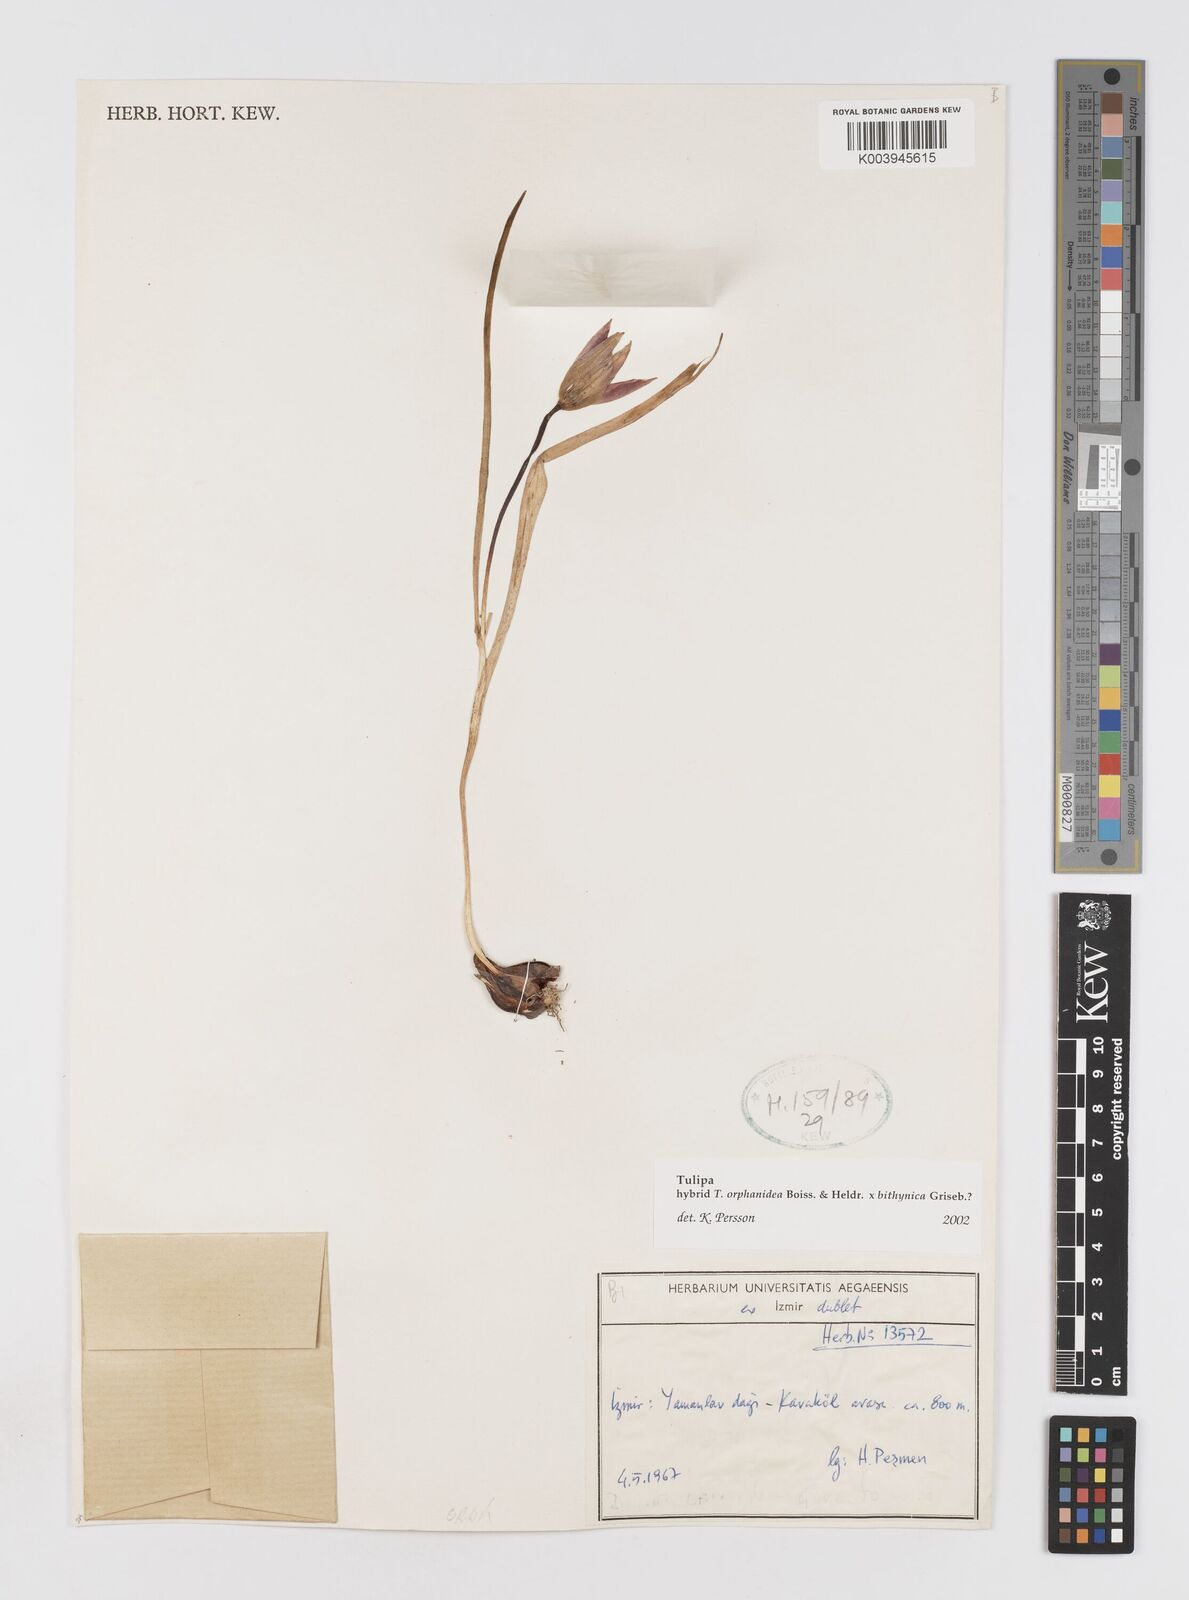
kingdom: Plantae
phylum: Tracheophyta
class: Liliopsida
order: Liliales
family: Liliaceae
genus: Tulipa
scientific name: Tulipa orphanidea
